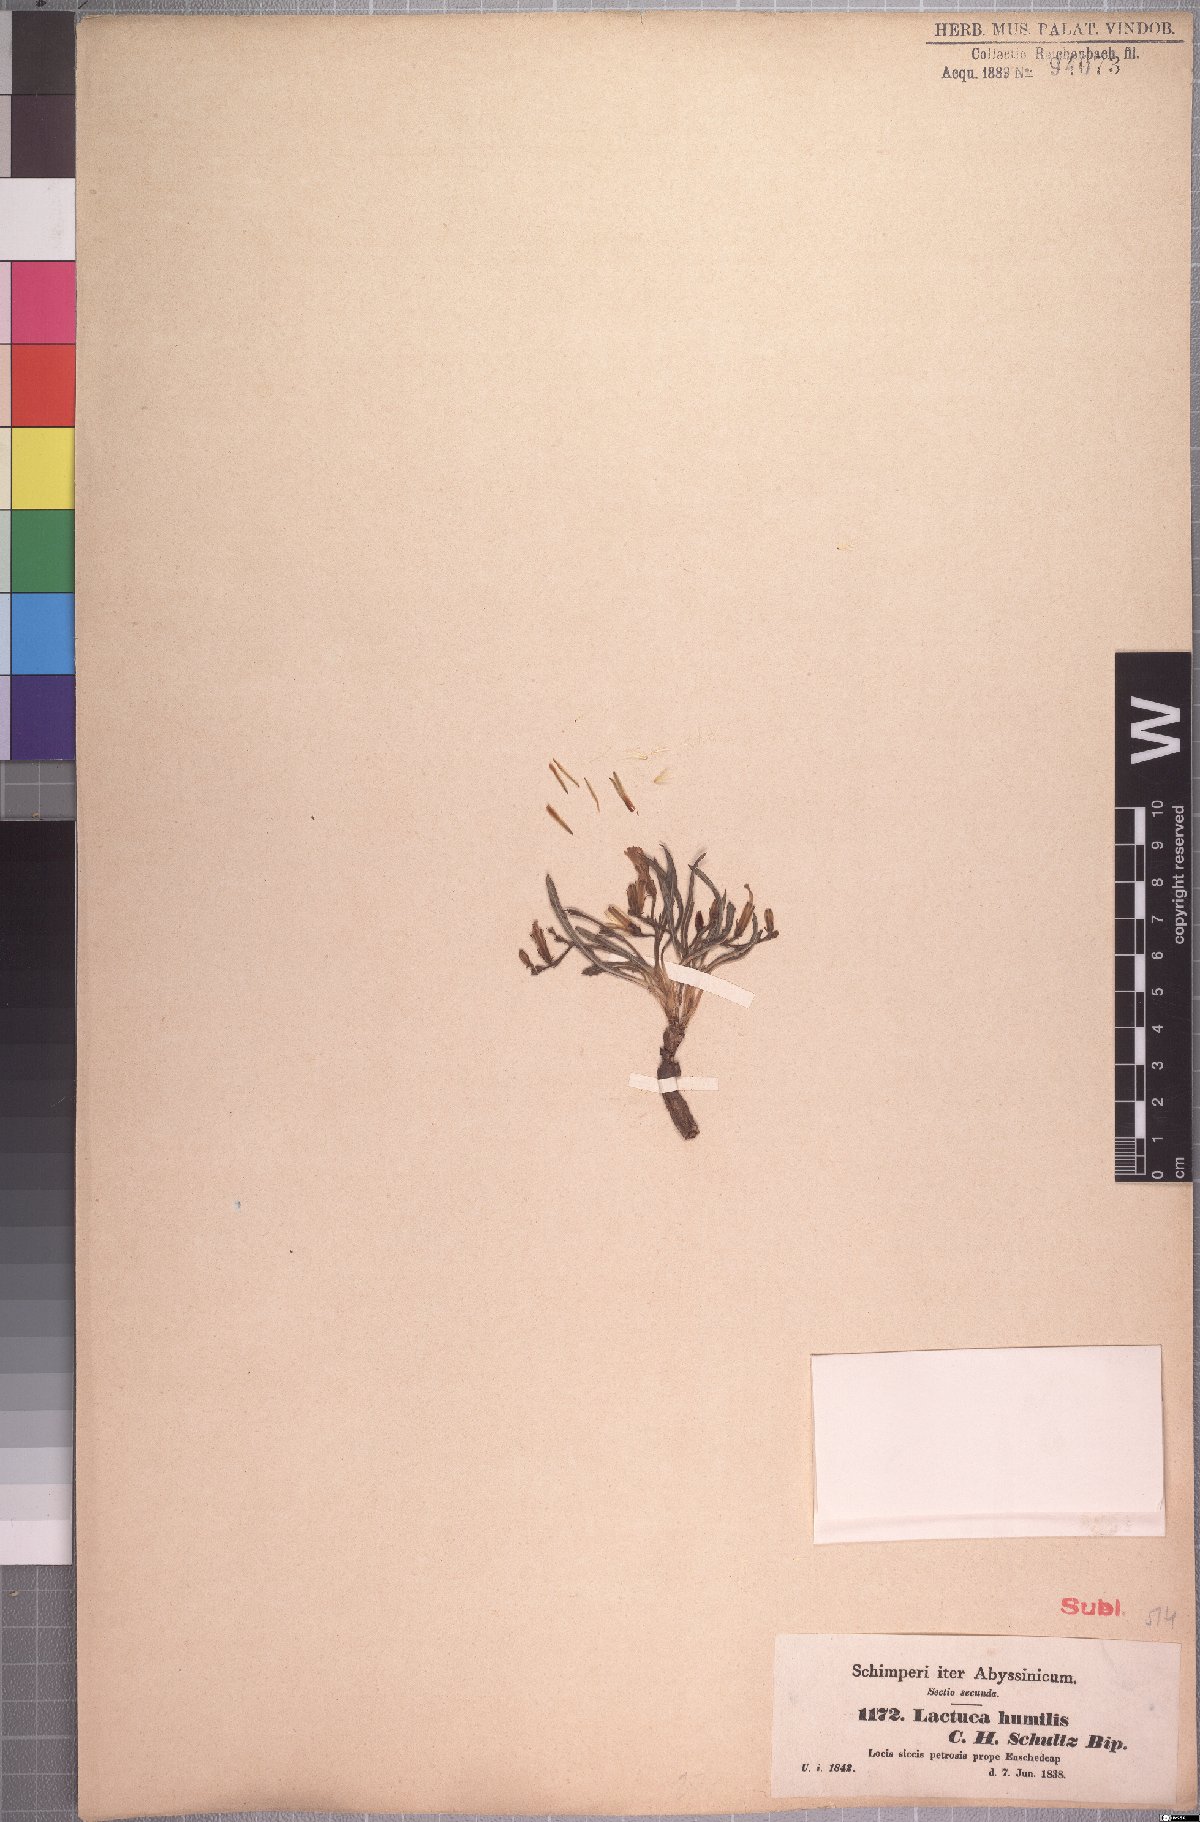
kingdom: Plantae
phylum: Tracheophyta
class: Magnoliopsida
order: Asterales
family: Asteraceae
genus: Lactuca
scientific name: Lactuca inermis
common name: Wild lettuce
